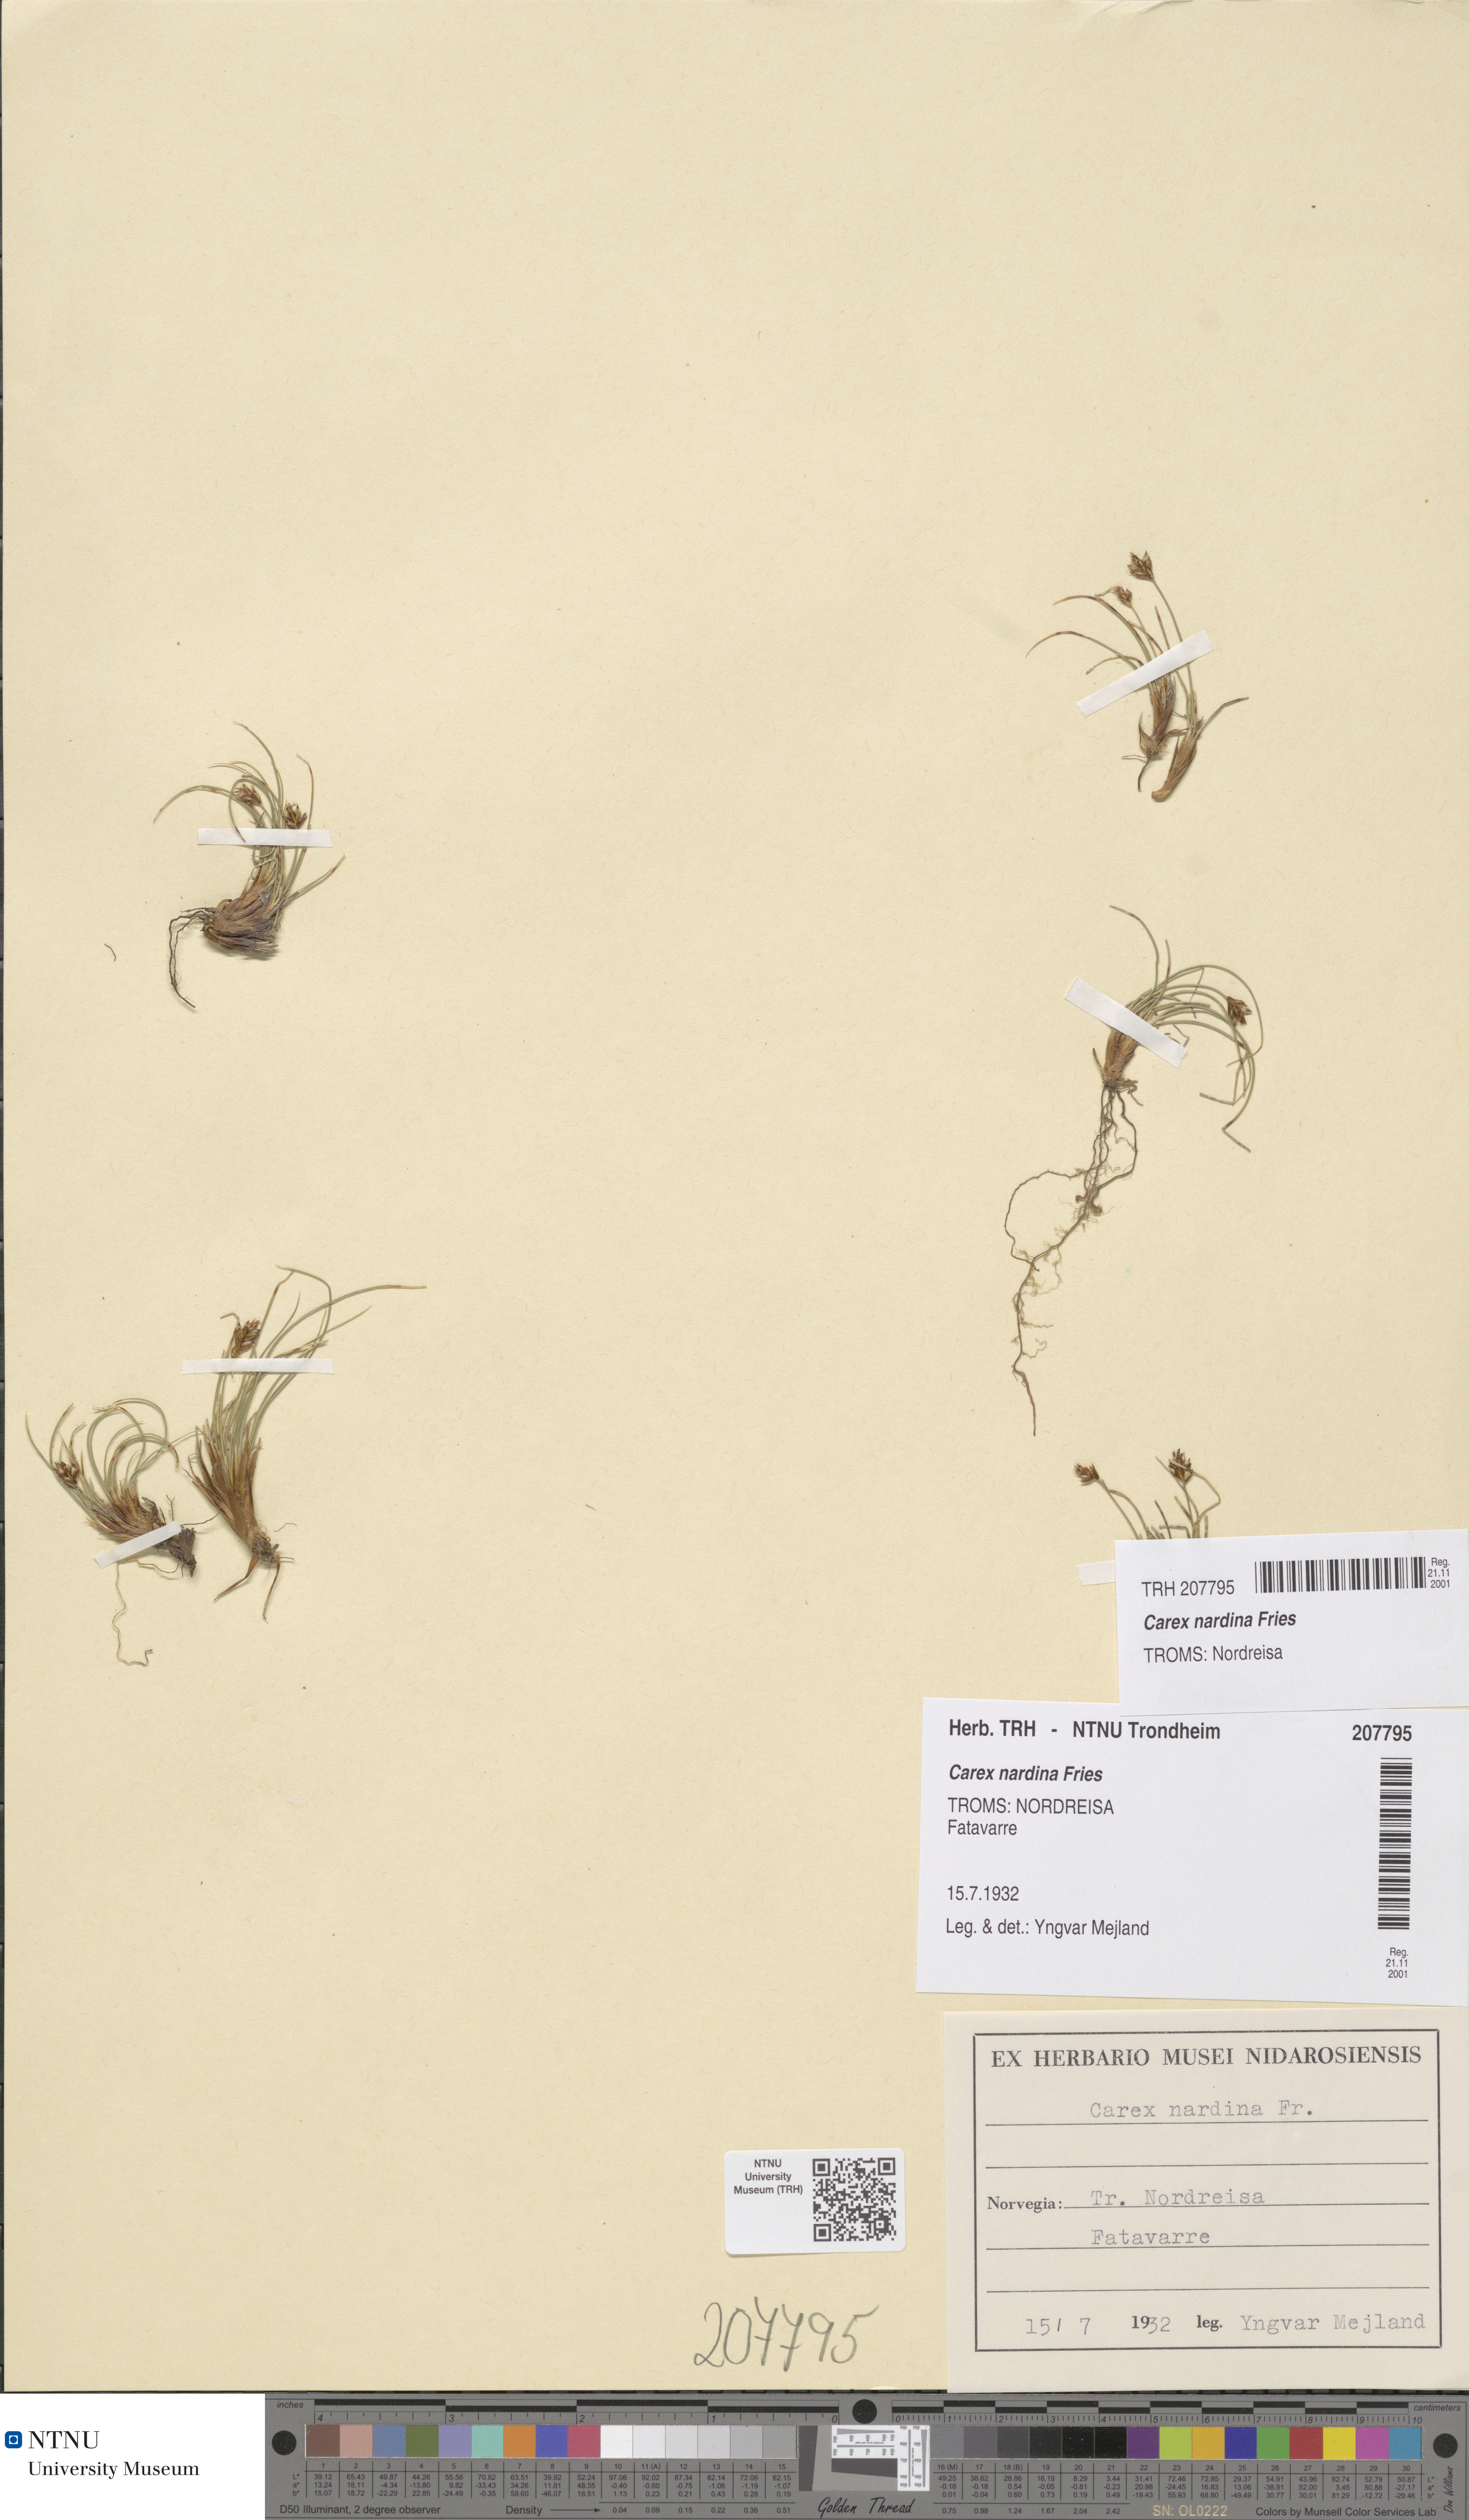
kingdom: Plantae
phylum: Tracheophyta
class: Liliopsida
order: Poales
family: Cyperaceae
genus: Carex
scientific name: Carex nardina
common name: Nard sedge
